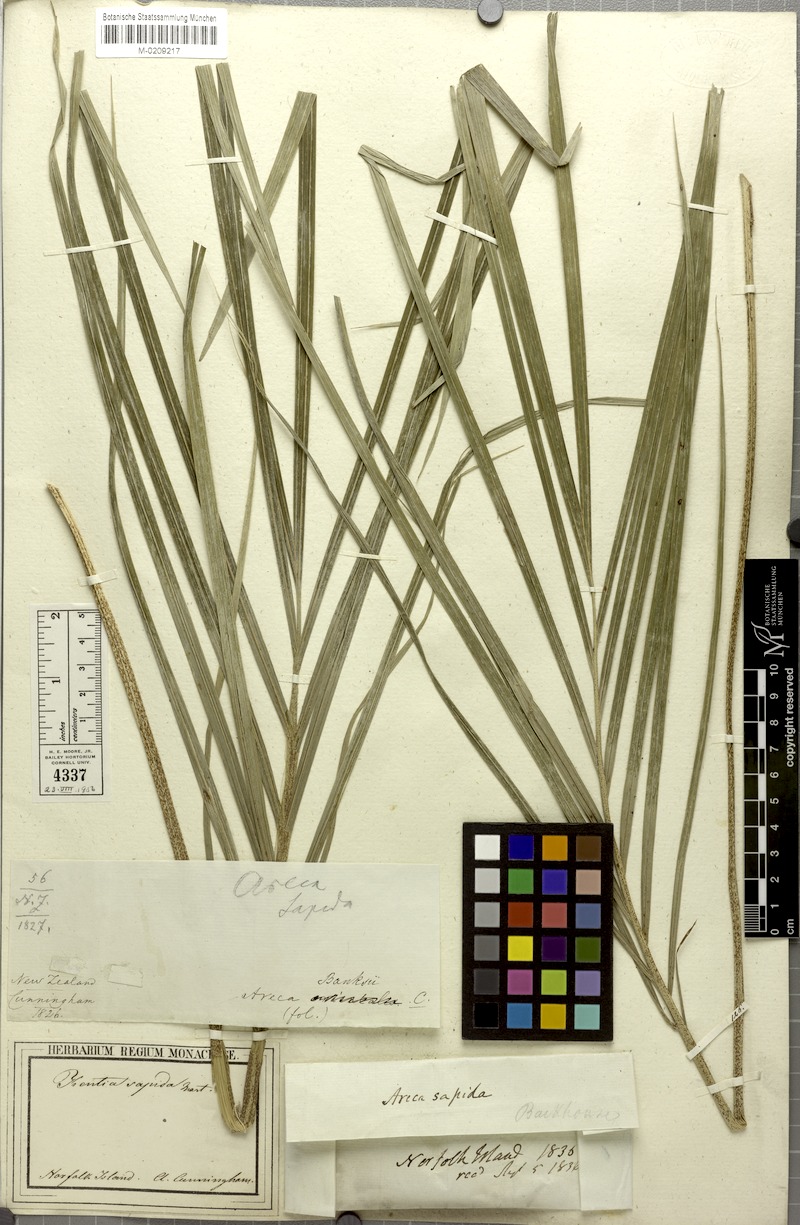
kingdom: Plantae
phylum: Tracheophyta
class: Liliopsida
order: Arecales
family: Arecaceae
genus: Rhopalostylis
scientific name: Rhopalostylis sapida
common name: Feather-duster palm
